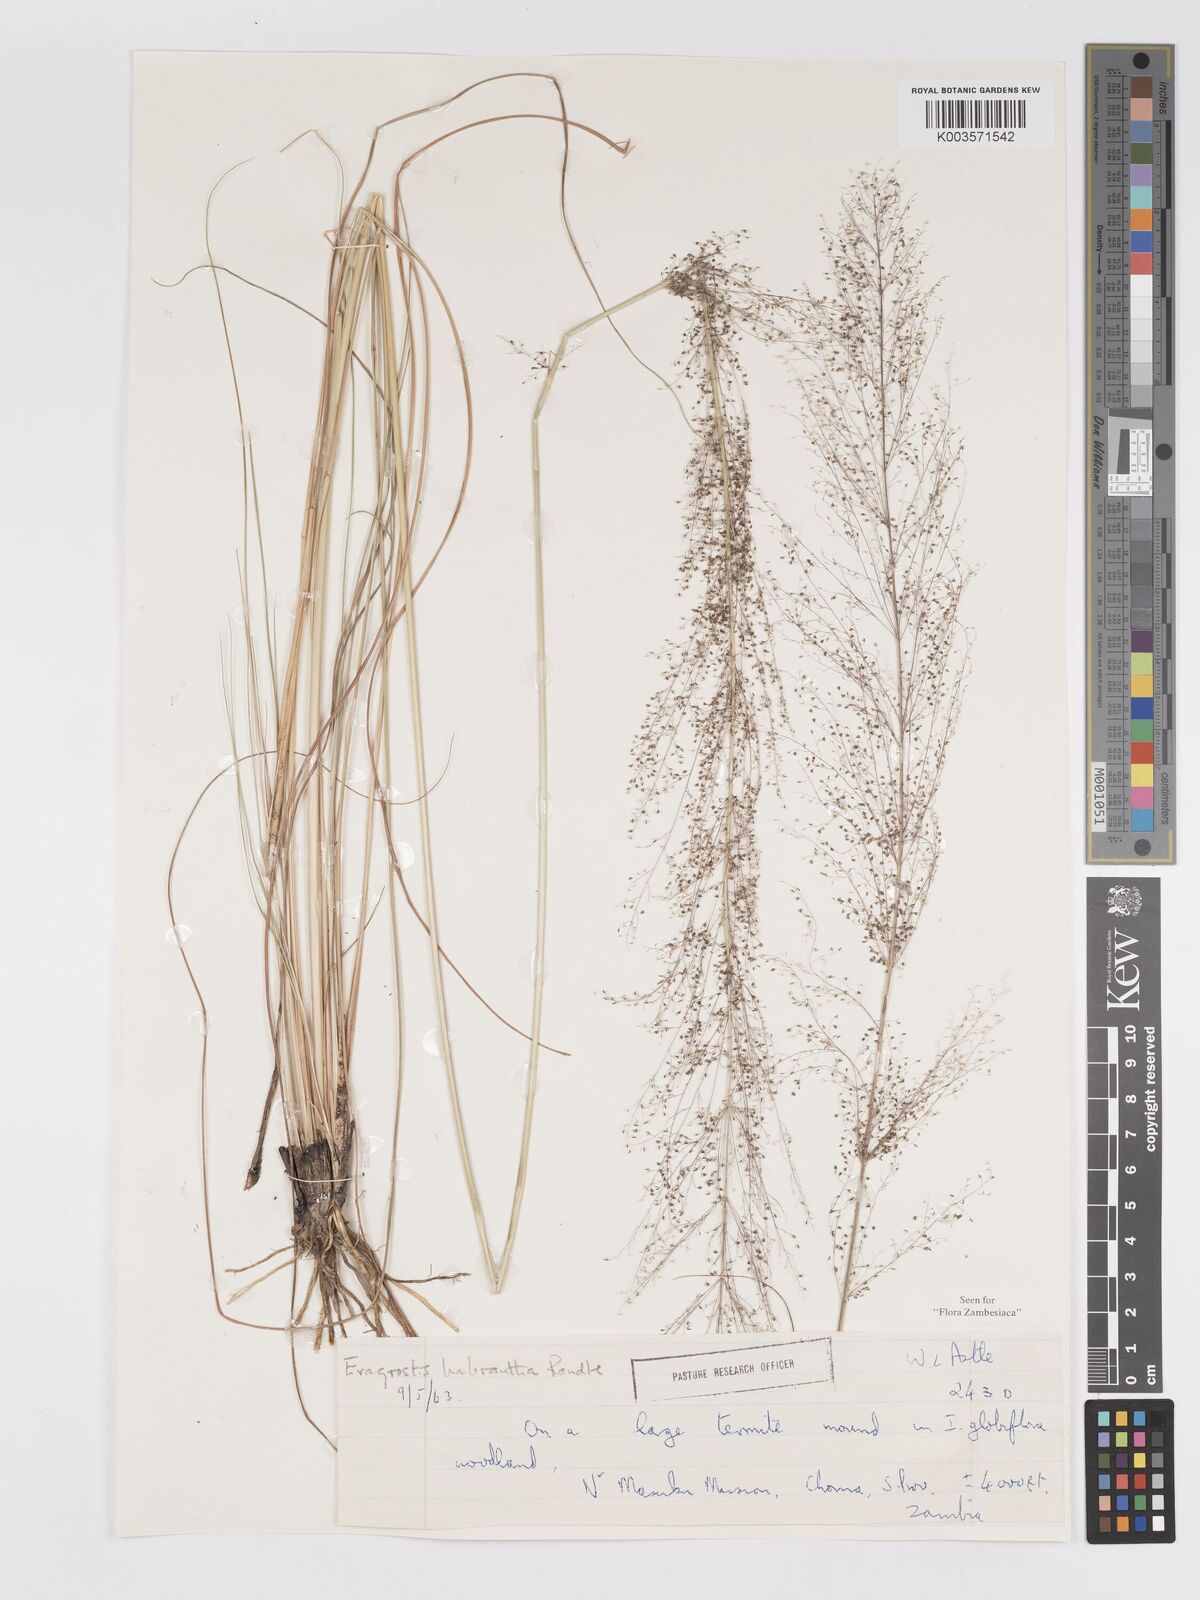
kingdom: Plantae
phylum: Tracheophyta
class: Liliopsida
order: Poales
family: Poaceae
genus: Eragrostis
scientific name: Eragrostis habrantha
